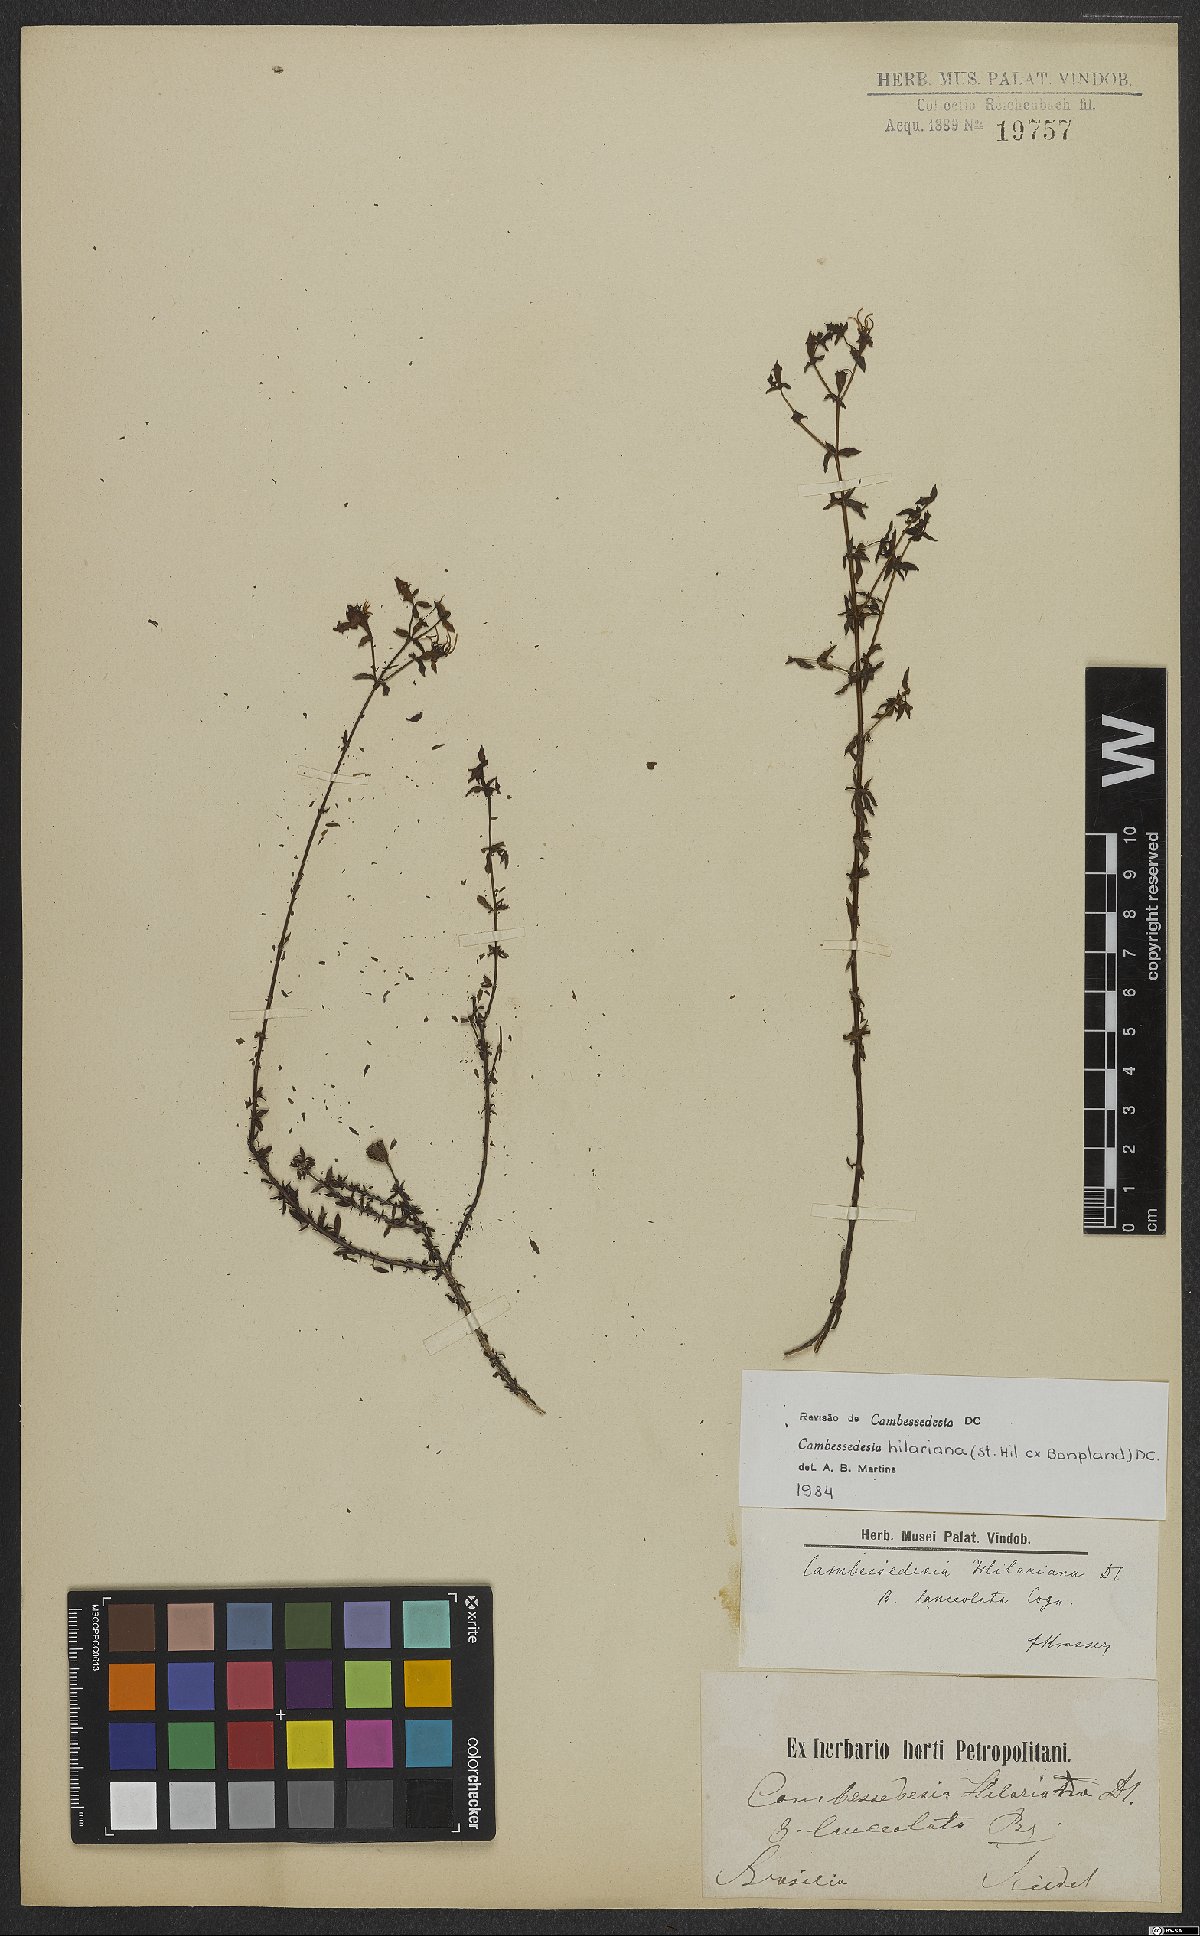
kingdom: Plantae
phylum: Tracheophyta
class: Magnoliopsida
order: Myrtales
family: Melastomataceae
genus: Cambessedesia
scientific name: Cambessedesia hilariana
